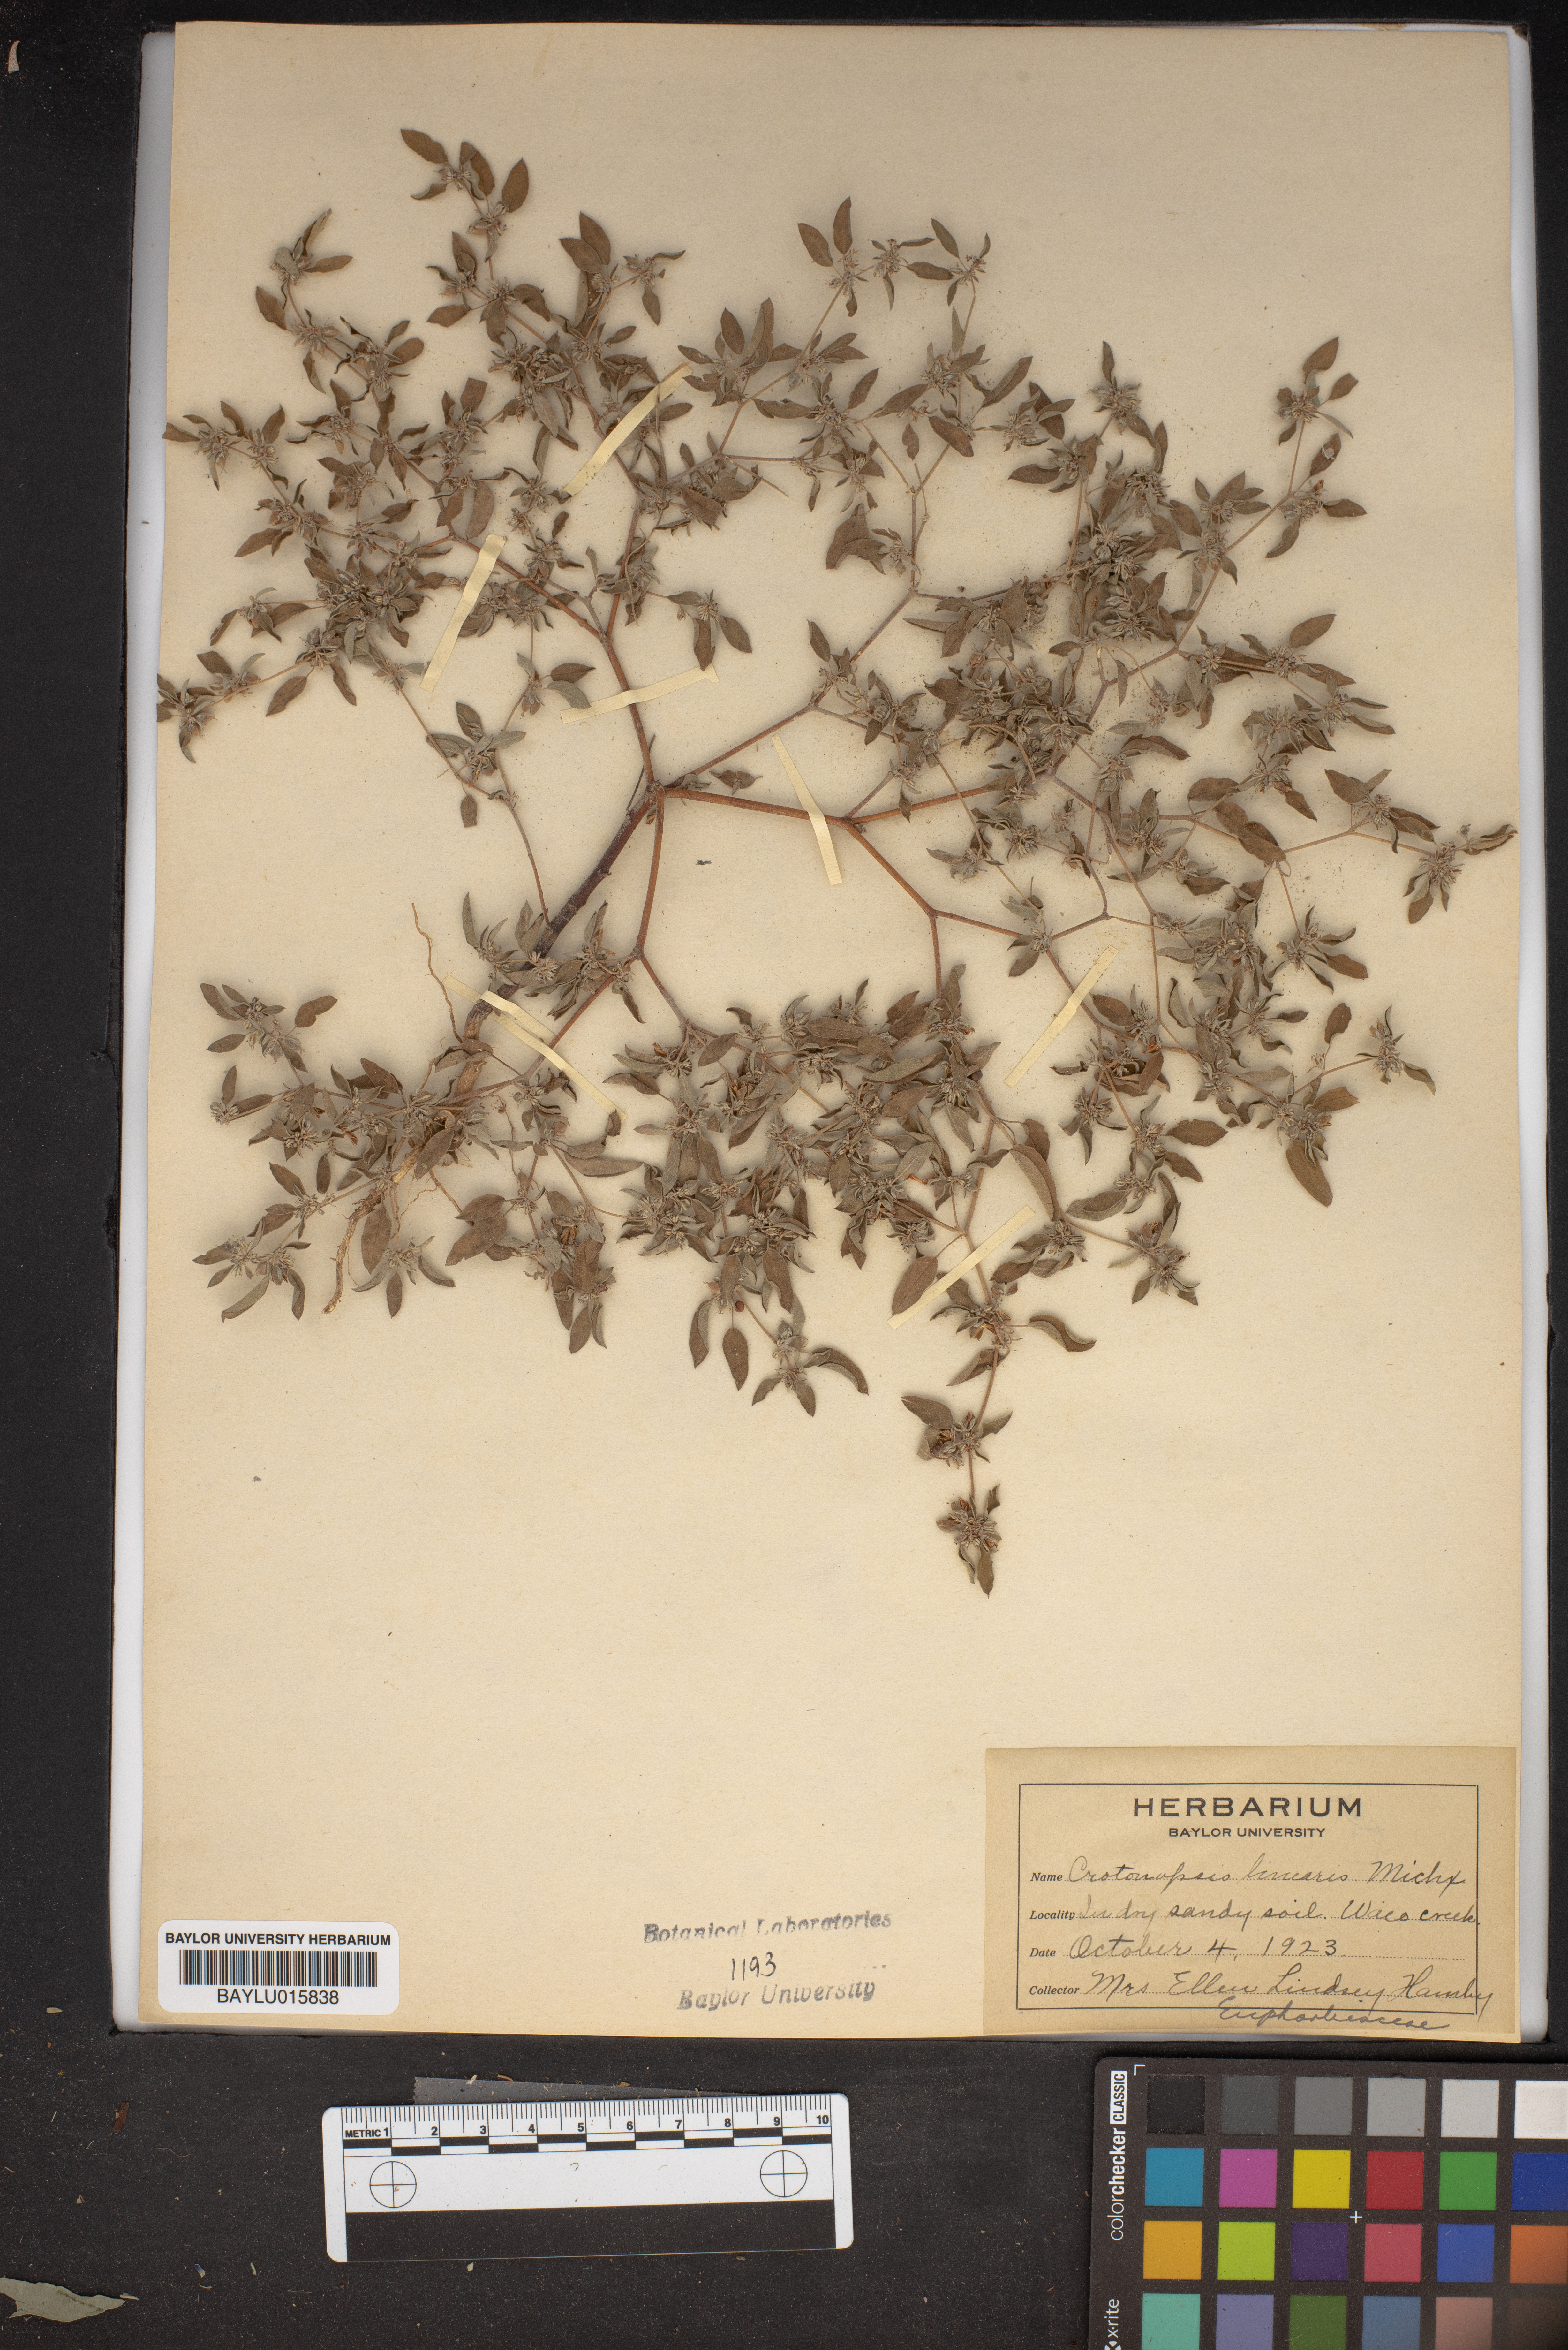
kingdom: Plantae
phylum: Tracheophyta
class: Magnoliopsida
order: Malpighiales
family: Euphorbiaceae
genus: Croton
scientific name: Croton michauxii
